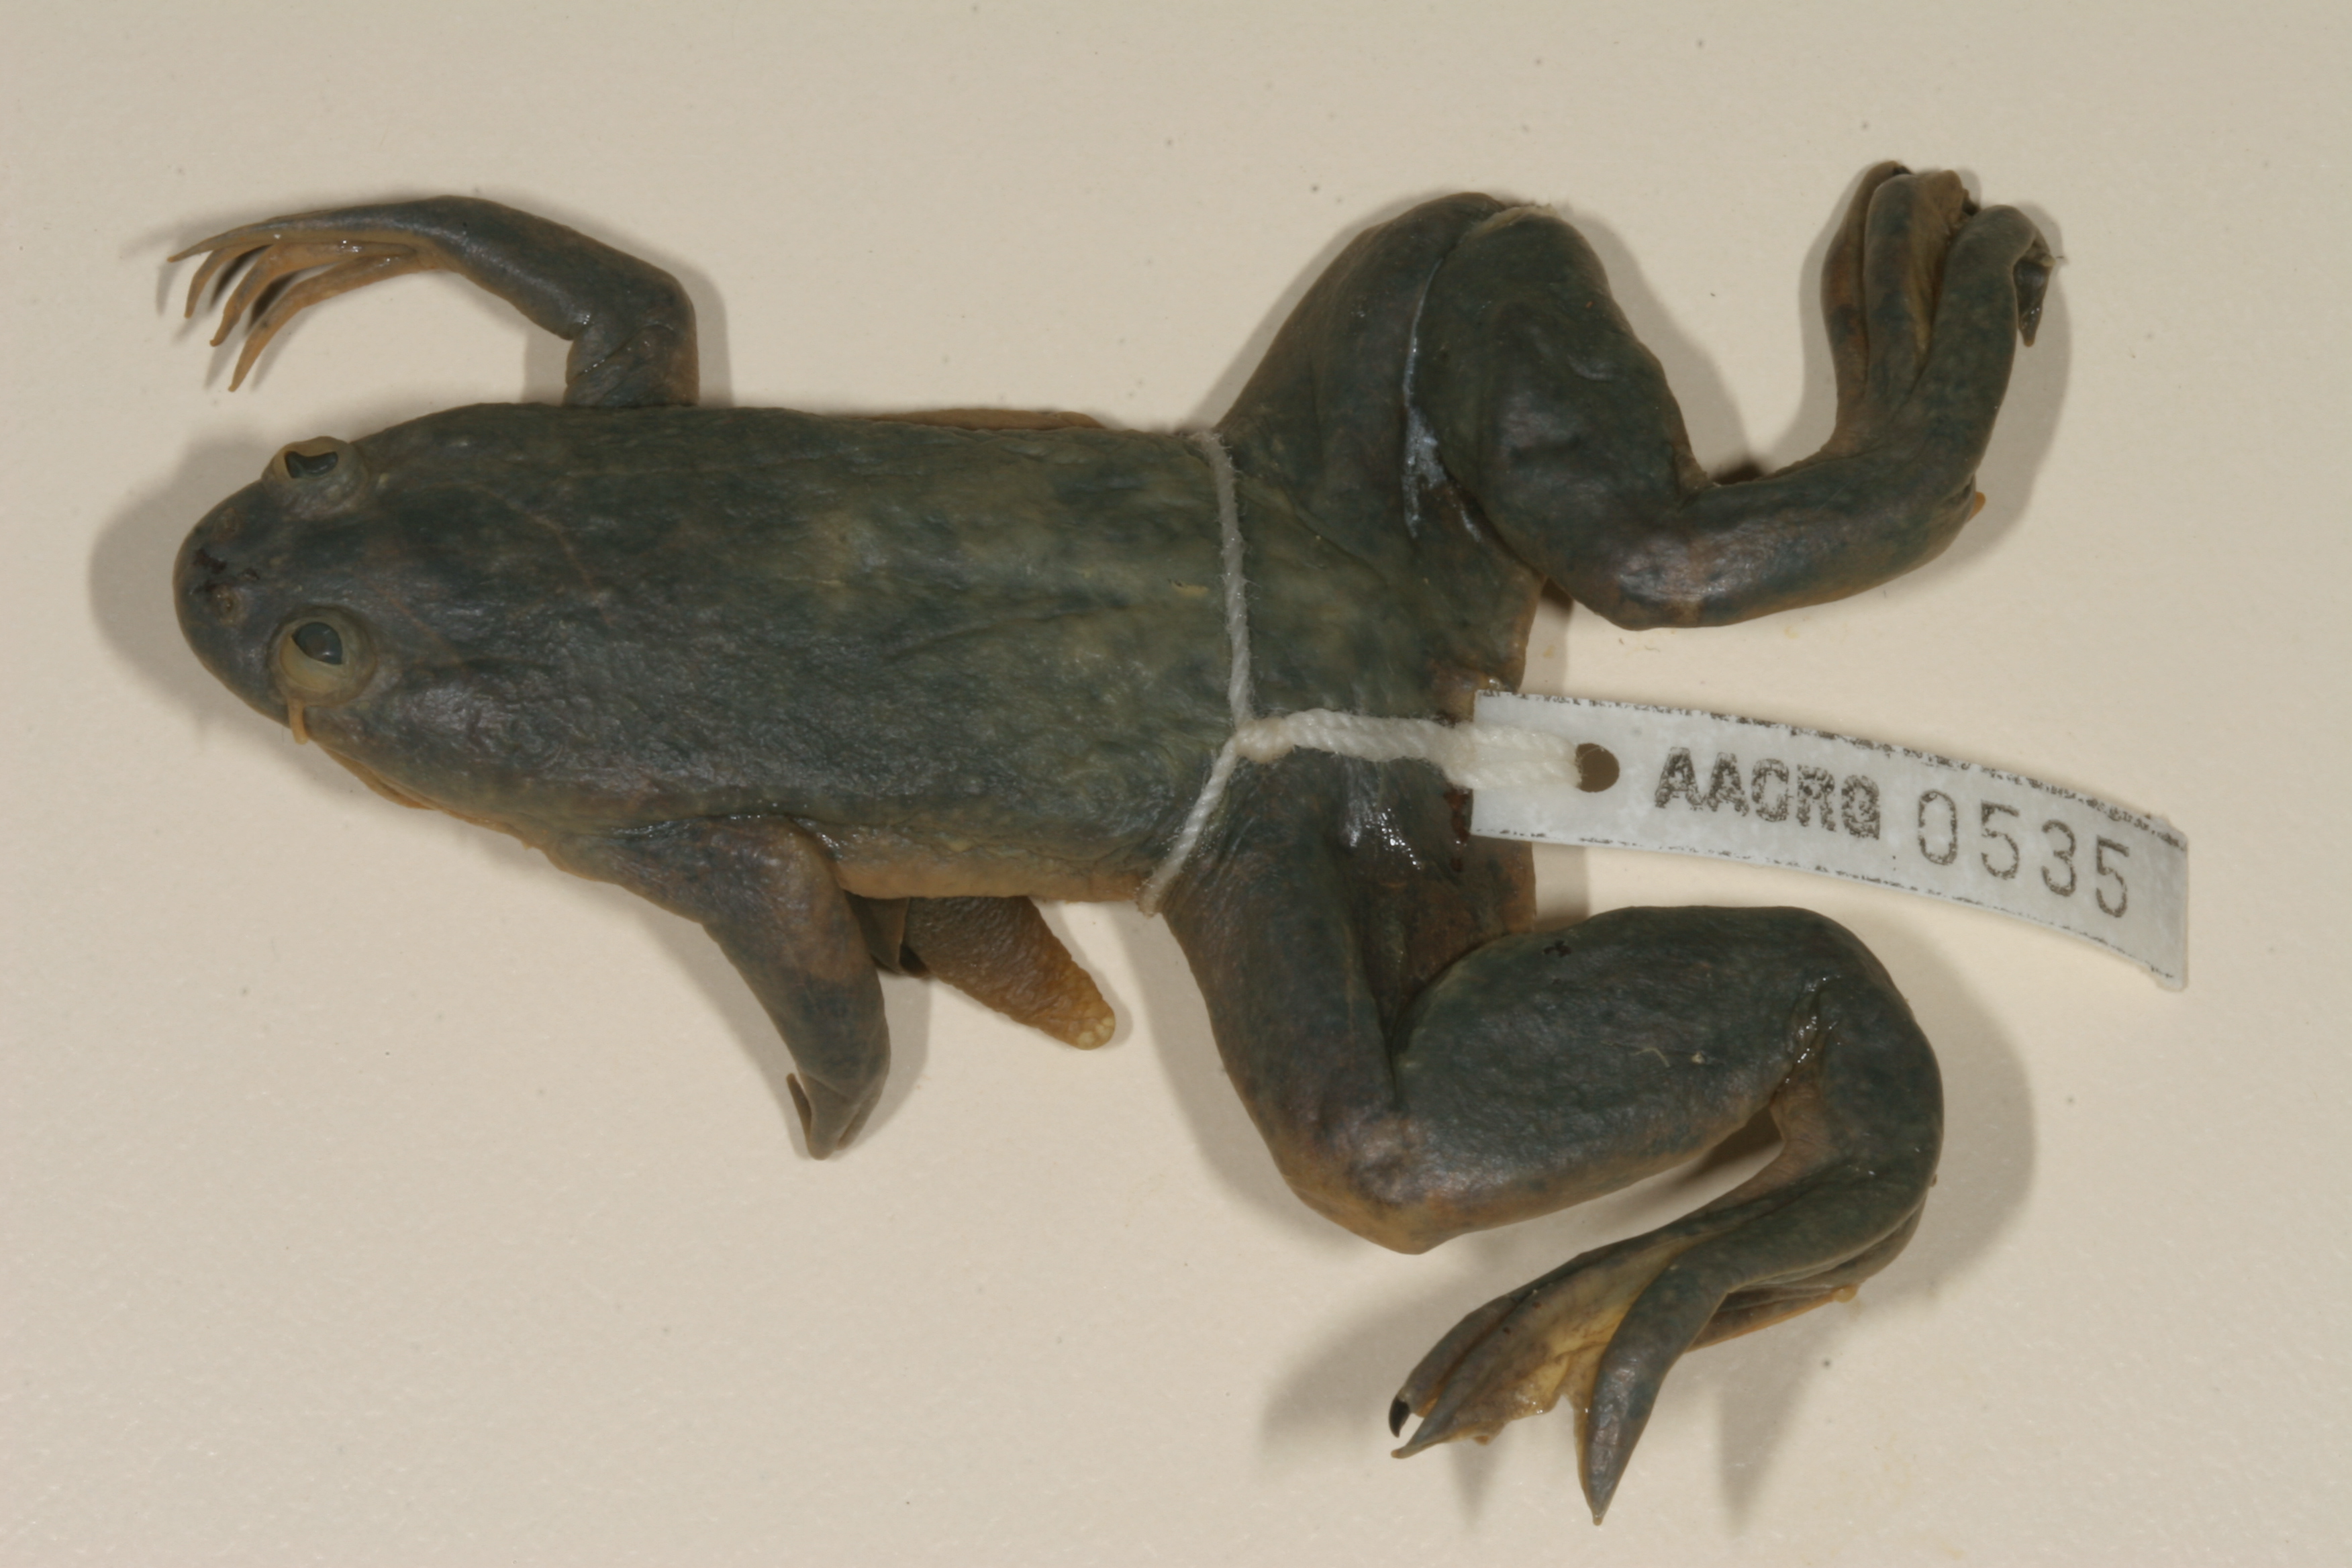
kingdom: Animalia
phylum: Chordata
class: Amphibia
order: Anura
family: Pipidae
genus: Xenopus
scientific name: Xenopus muelleri
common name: Muller's clawed frog
